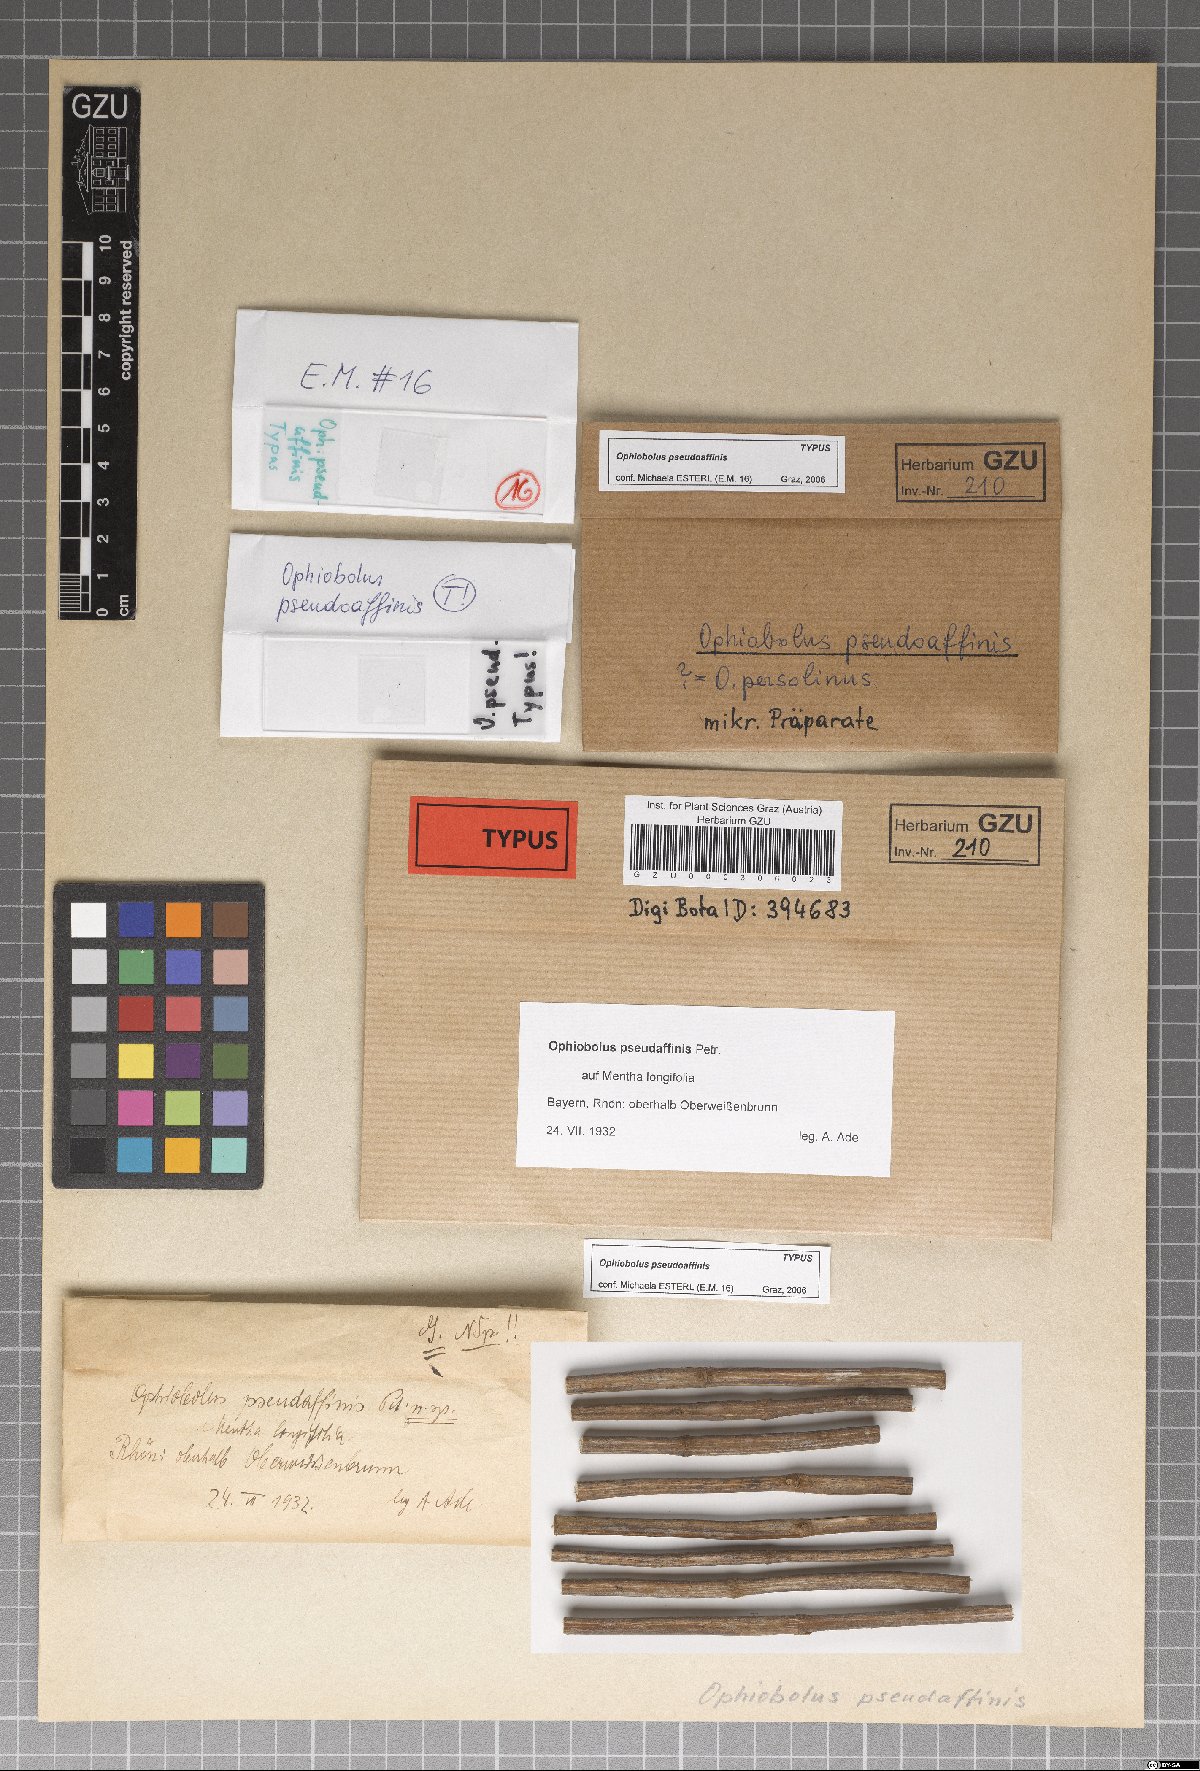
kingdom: Fungi
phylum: Ascomycota
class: Dothideomycetes
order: Pleosporales
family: Phaeosphaeriaceae
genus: Nodulosphaeria
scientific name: Nodulosphaeria pseudaffinis
